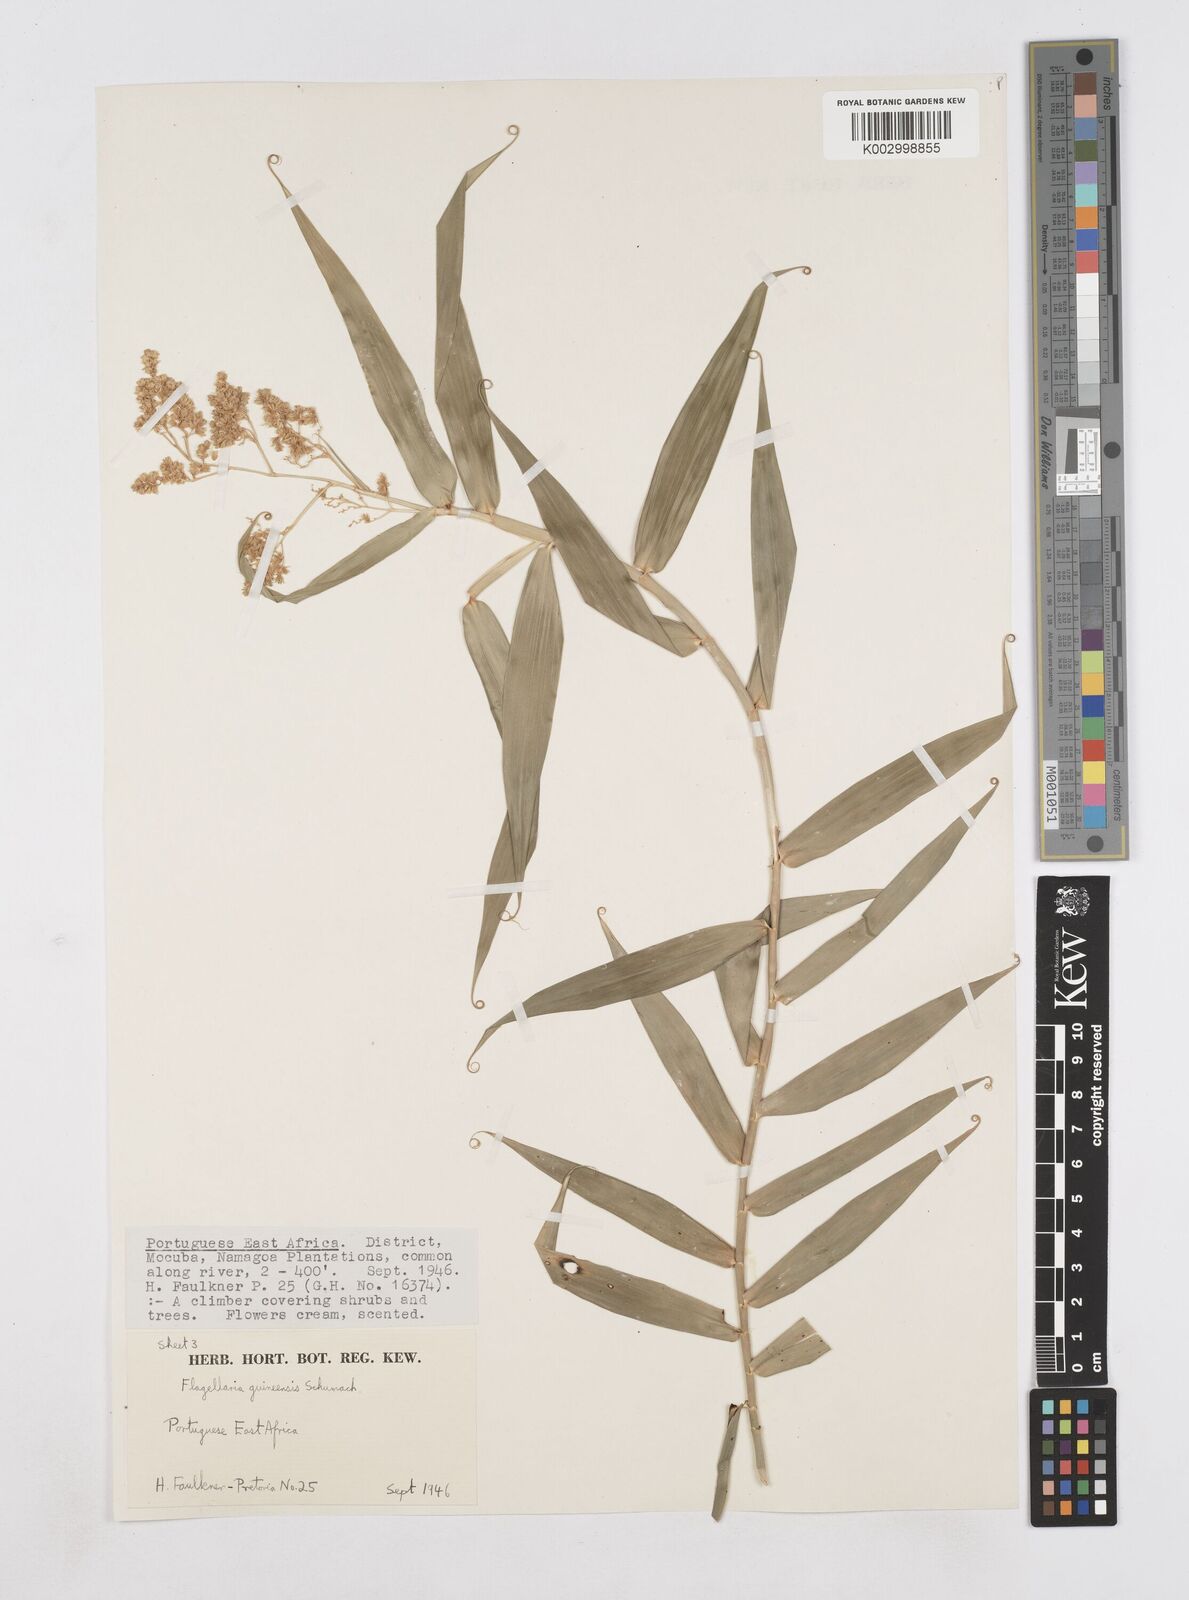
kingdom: Plantae
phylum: Tracheophyta
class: Liliopsida
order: Poales
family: Flagellariaceae
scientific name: Flagellariaceae
